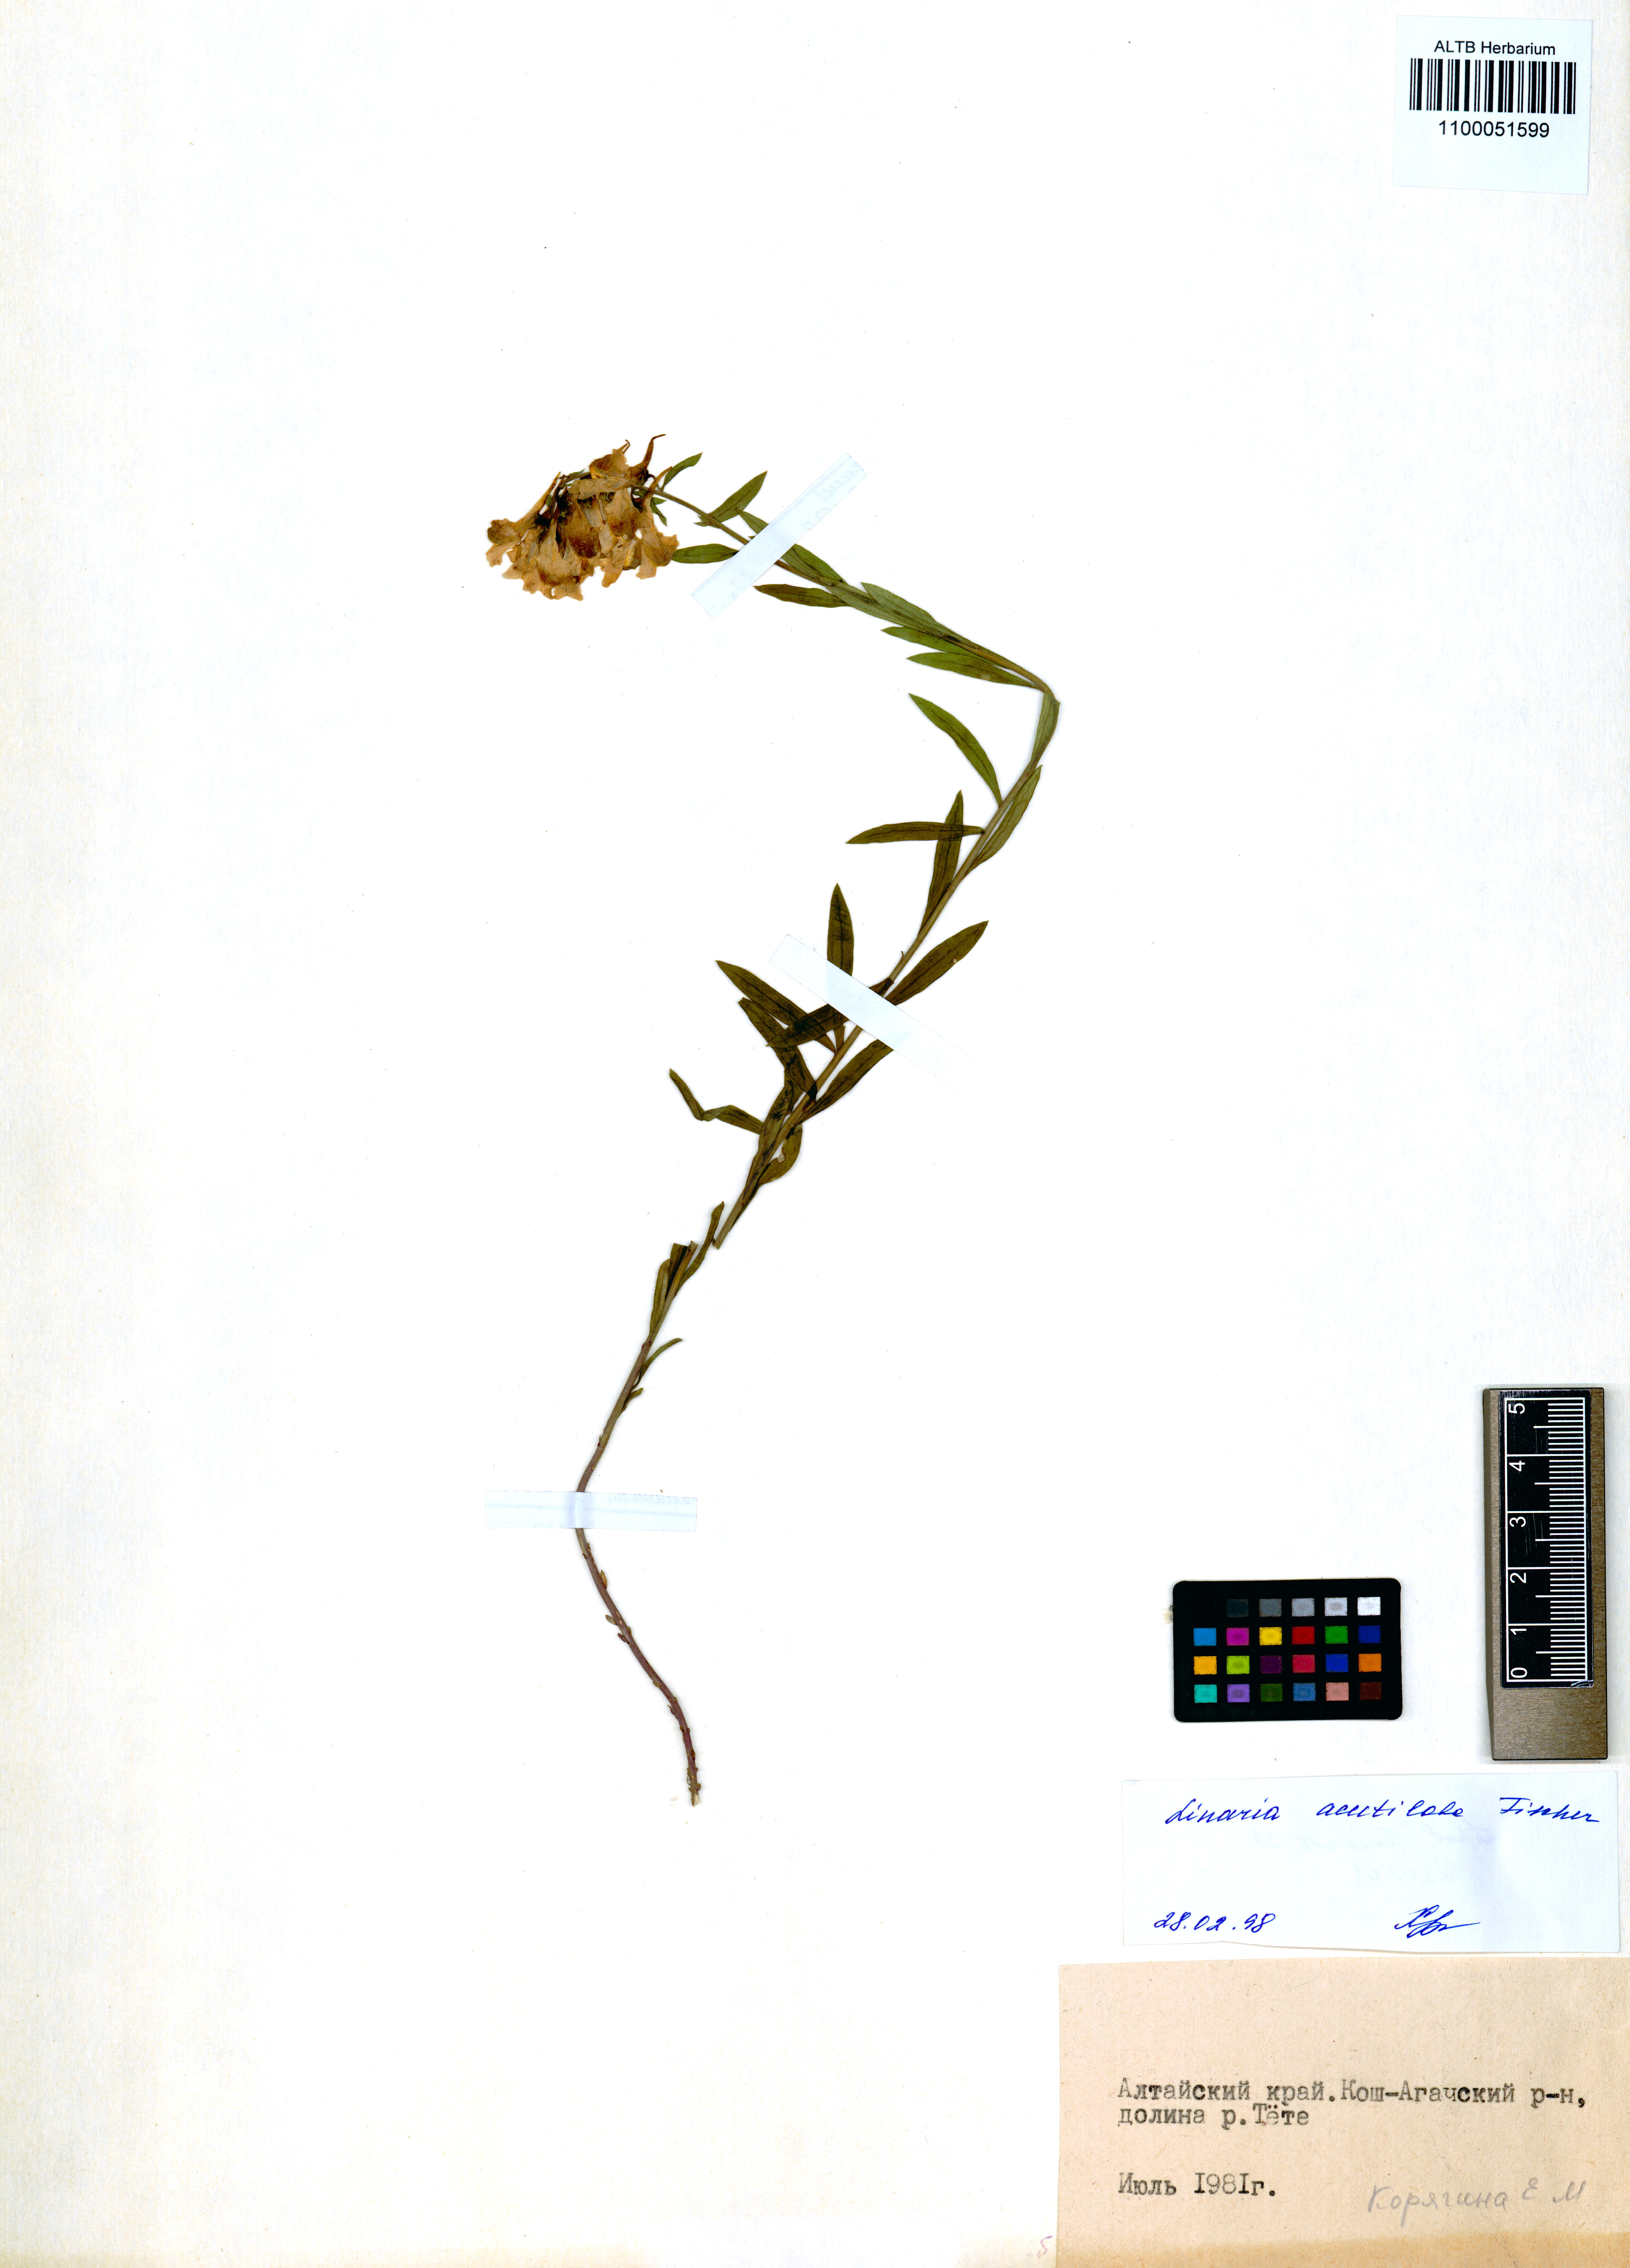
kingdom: Plantae
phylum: Tracheophyta
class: Magnoliopsida
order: Lamiales
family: Plantaginaceae
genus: Linaria
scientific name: Linaria acutiloba
